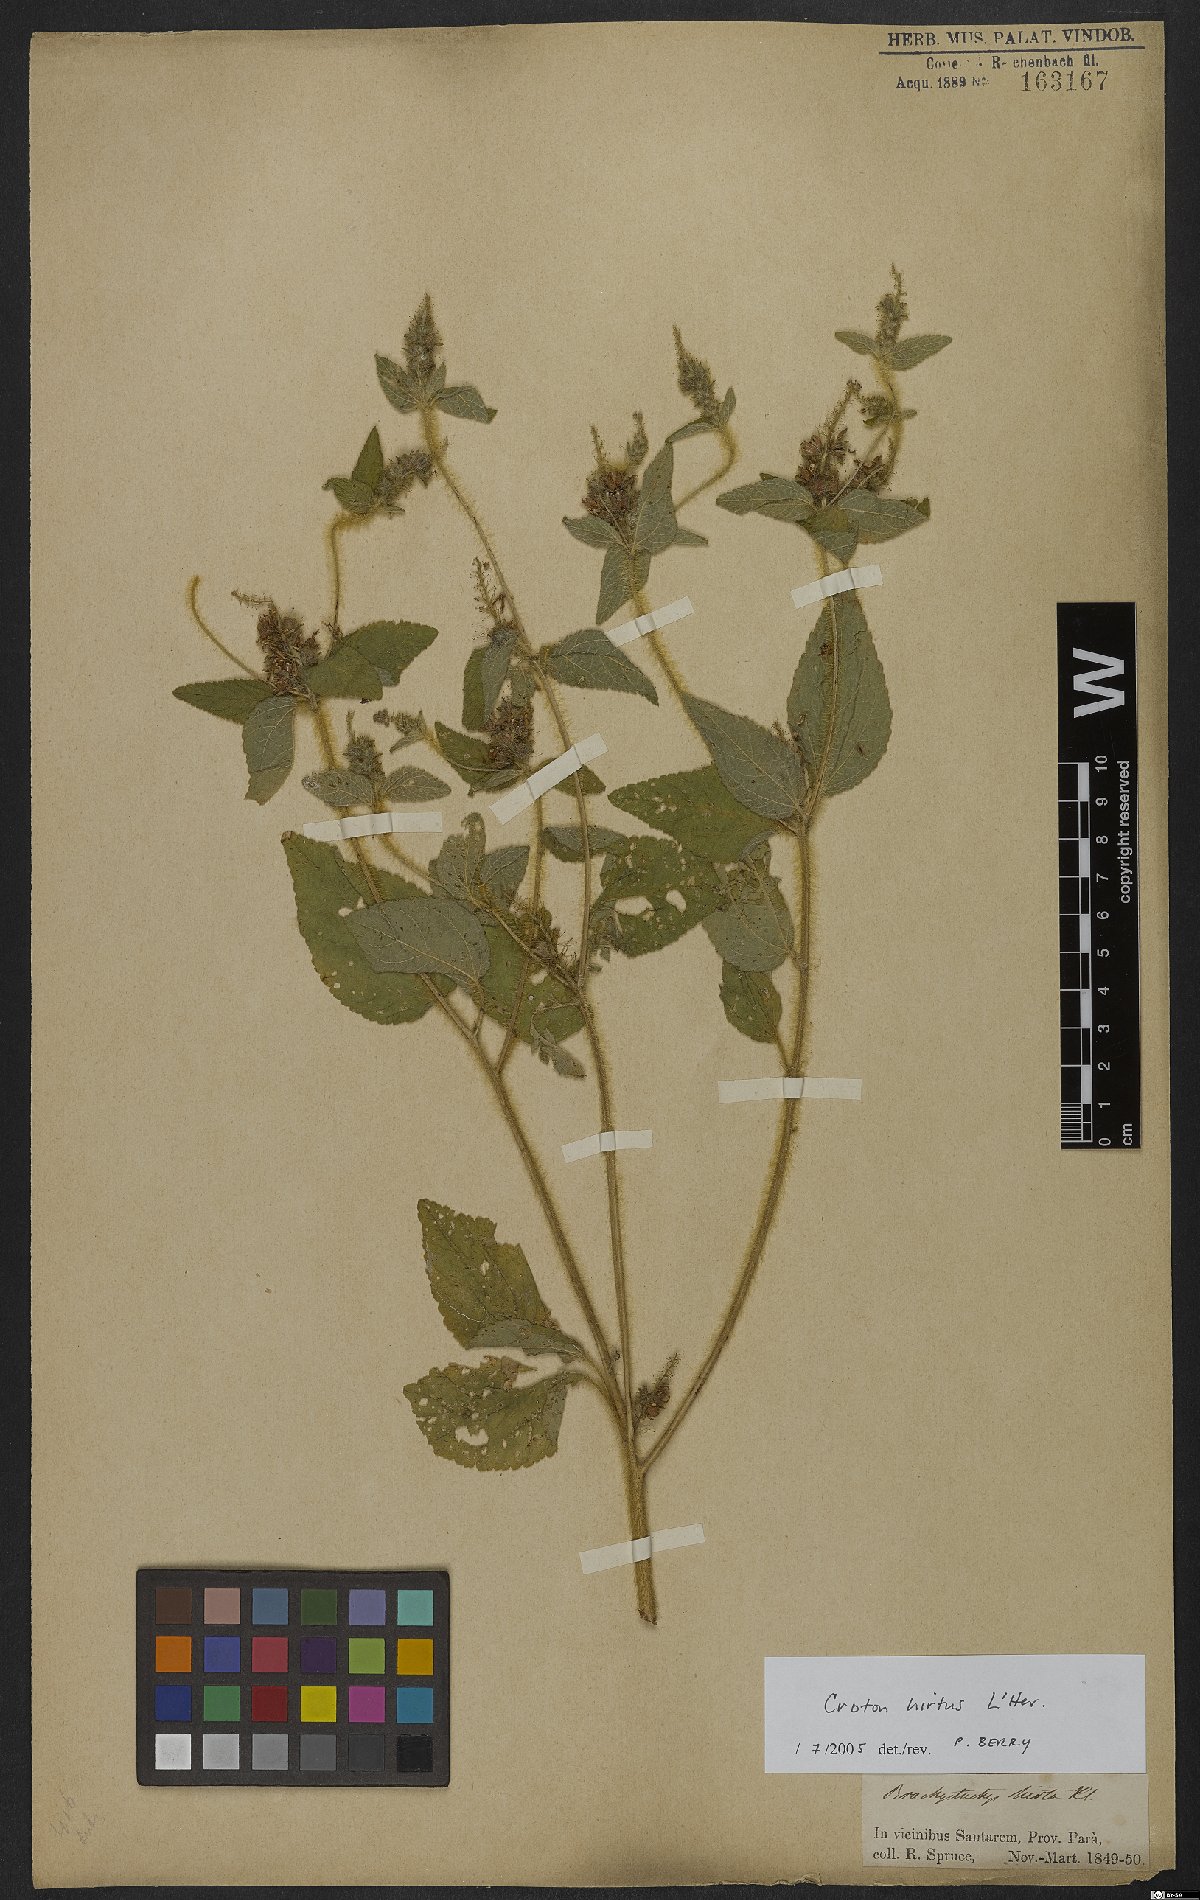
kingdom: Plantae
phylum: Tracheophyta
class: Magnoliopsida
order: Malpighiales
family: Euphorbiaceae
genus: Croton
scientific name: Croton hirtus
